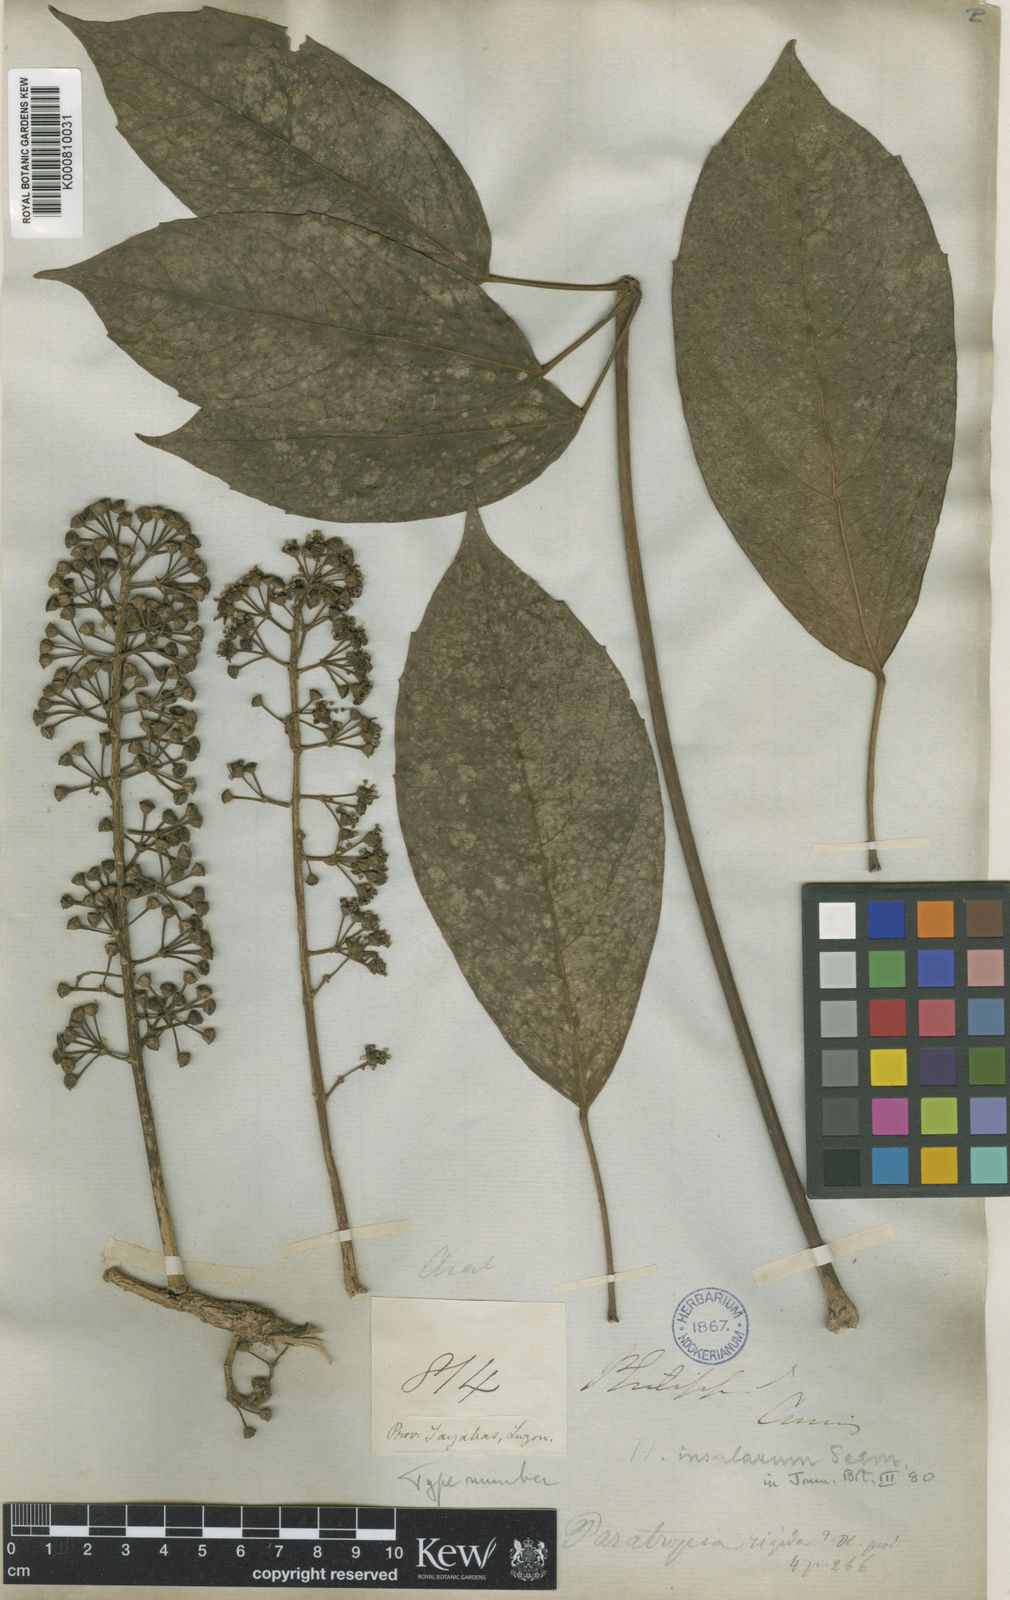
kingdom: Plantae
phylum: Tracheophyta
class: Magnoliopsida
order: Apiales
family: Araliaceae
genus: Heptapleurum
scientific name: Heptapleurum insularum
